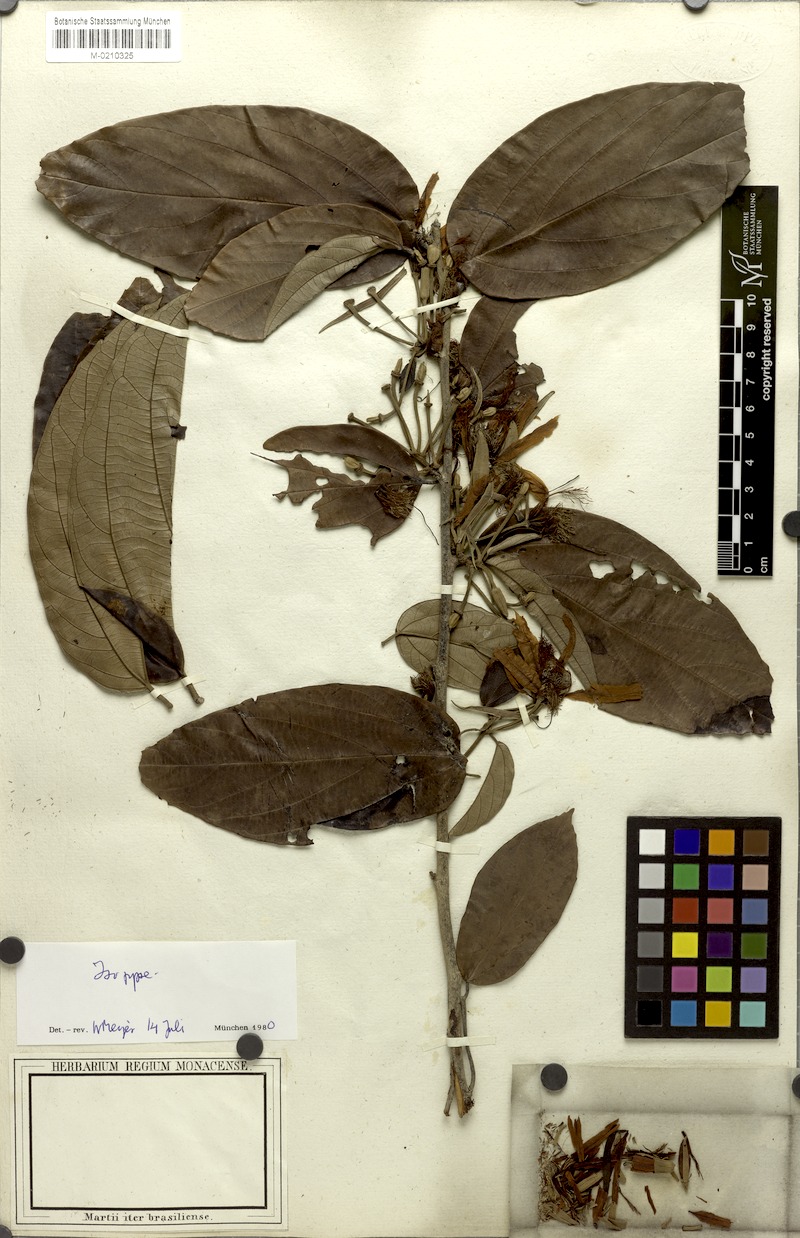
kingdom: Plantae
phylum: Tracheophyta
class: Magnoliopsida
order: Malvales
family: Malvaceae
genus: Mollia
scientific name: Mollia speciosa
